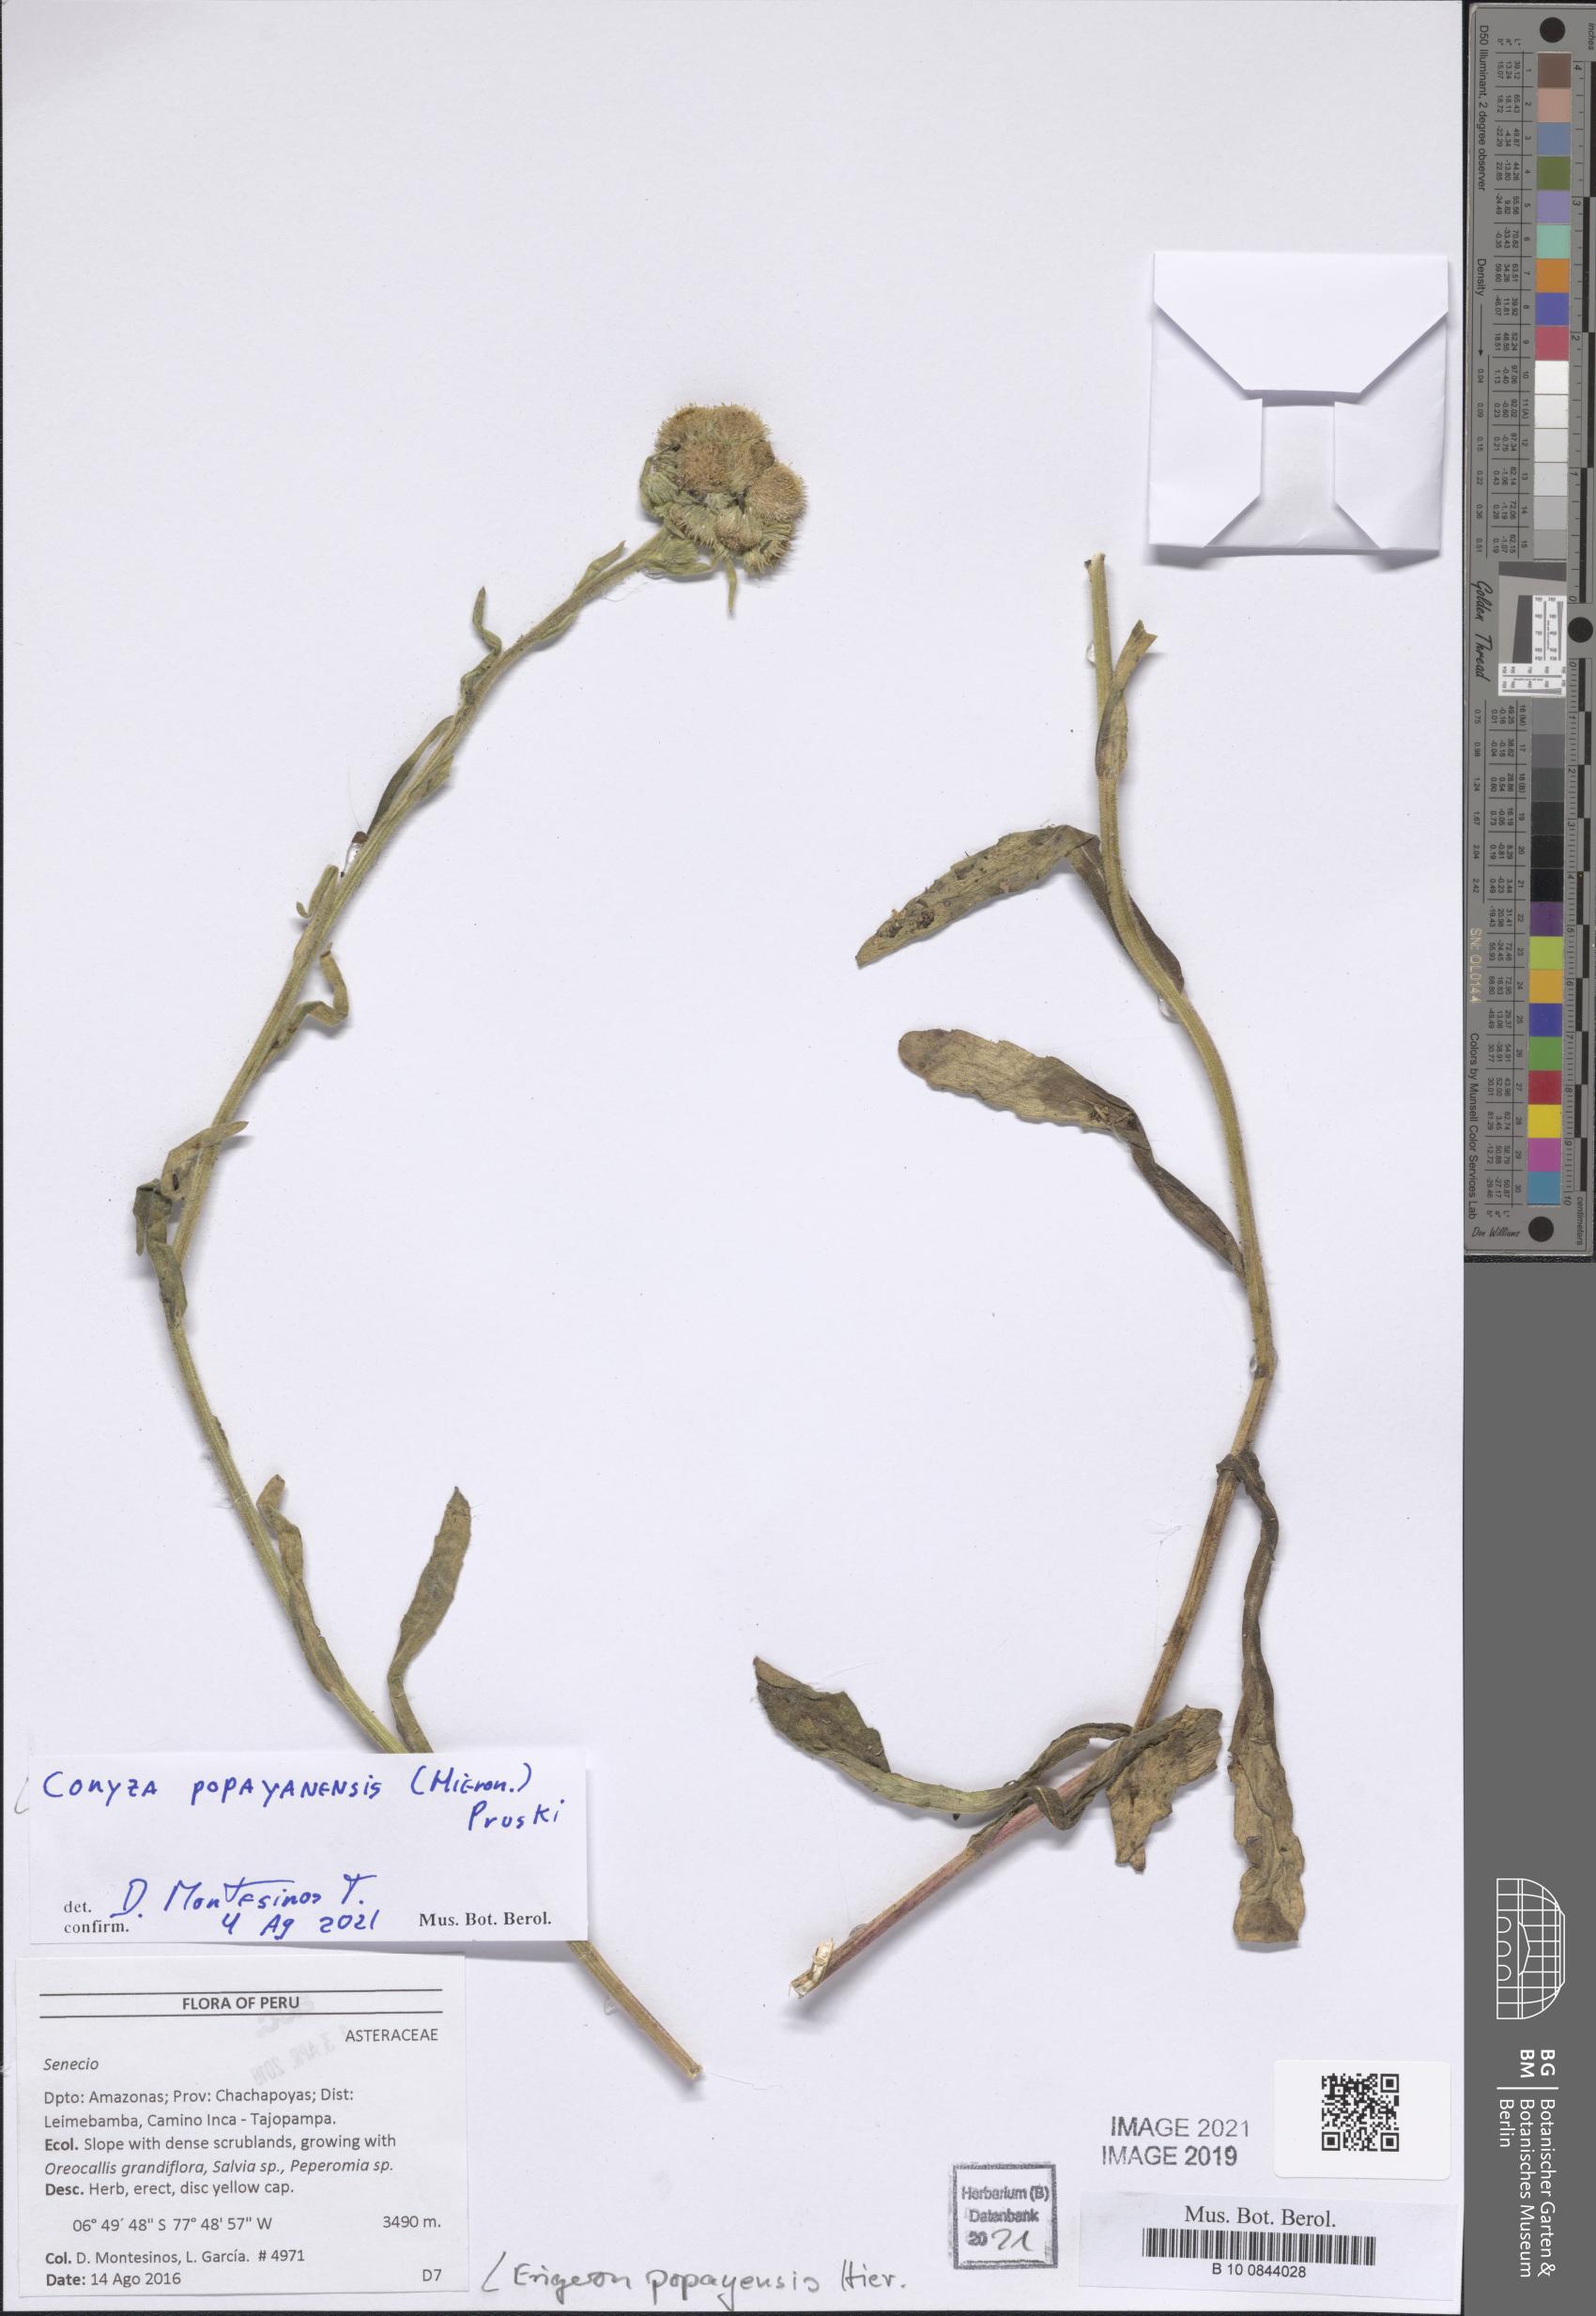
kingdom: Plantae
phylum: Tracheophyta
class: Magnoliopsida
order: Asterales
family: Asteraceae
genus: Erigeron
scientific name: Erigeron popayanensis
